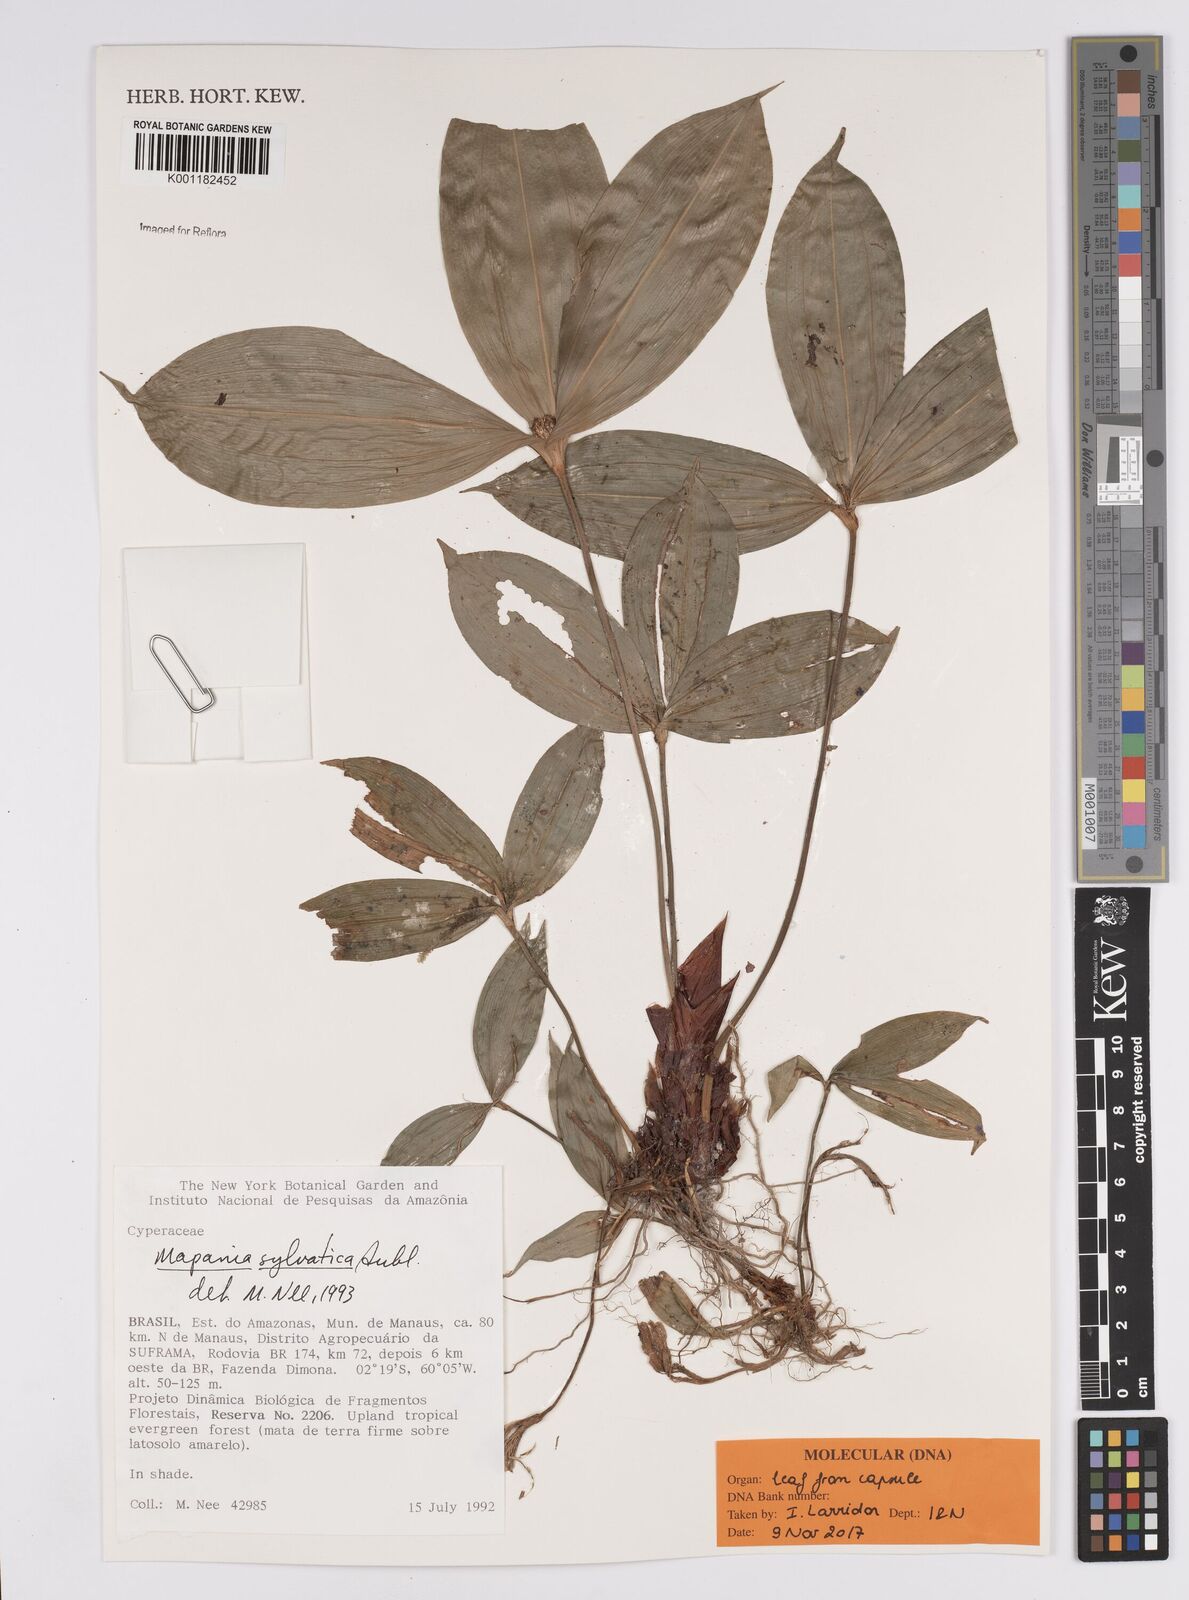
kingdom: Plantae
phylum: Tracheophyta
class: Liliopsida
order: Poales
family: Cyperaceae
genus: Mapania
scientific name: Mapania sylvatica
